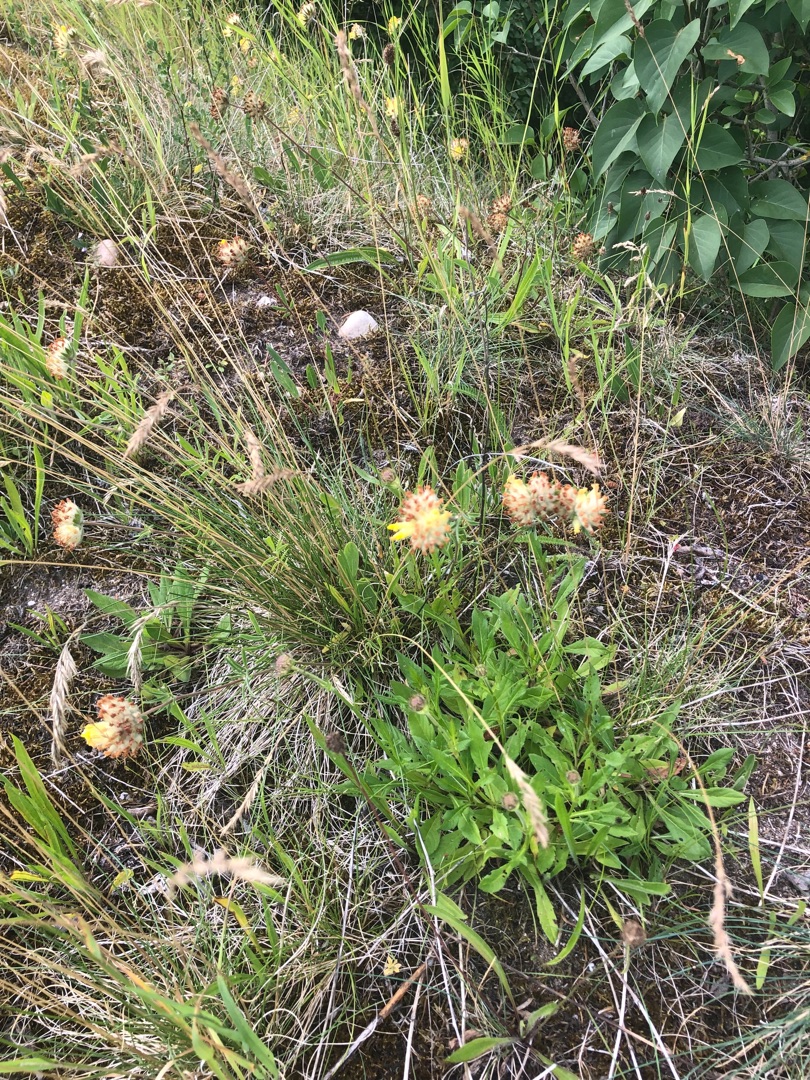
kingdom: Plantae
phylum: Tracheophyta
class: Magnoliopsida
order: Fabales
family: Fabaceae
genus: Anthyllis
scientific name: Anthyllis vulneraria
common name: Rundbælg
